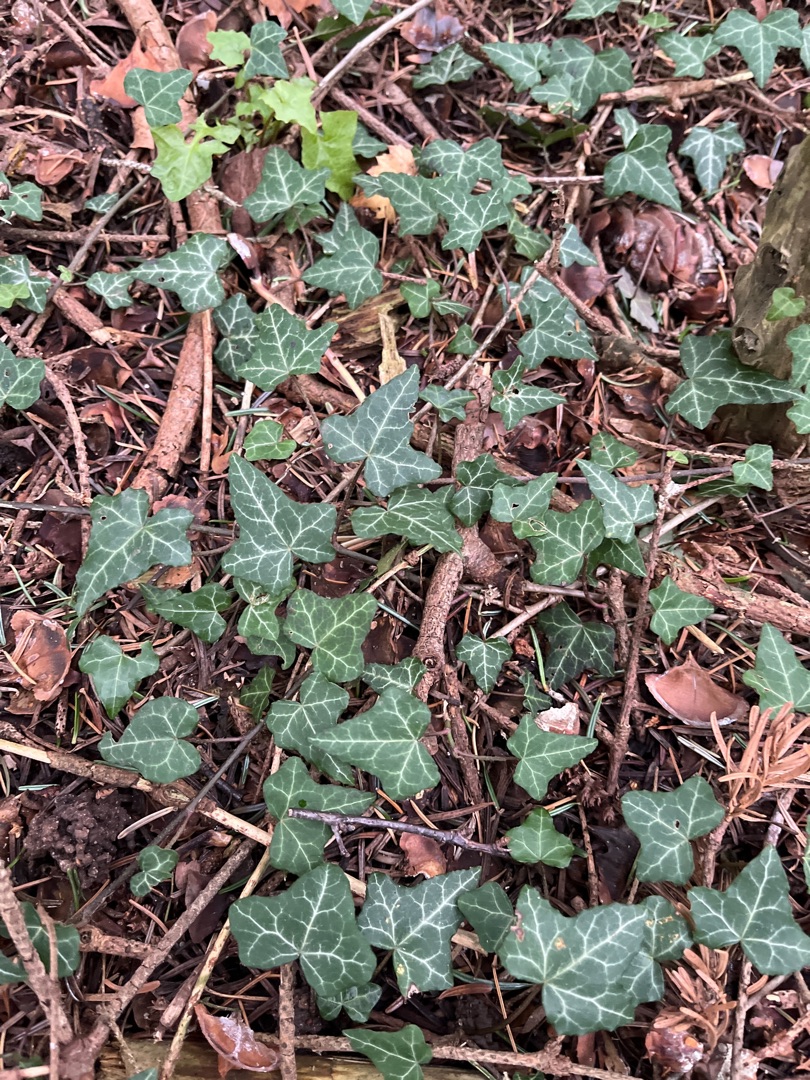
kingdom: Plantae
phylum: Tracheophyta
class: Magnoliopsida
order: Apiales
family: Araliaceae
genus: Hedera
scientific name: Hedera helix
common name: Vedbend
